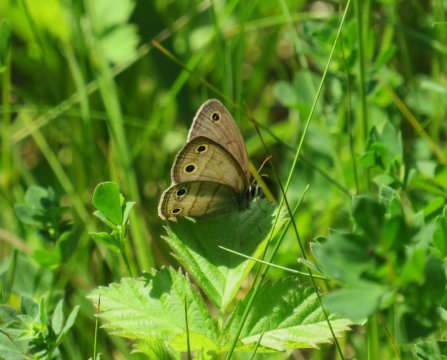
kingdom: Animalia
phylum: Arthropoda
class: Insecta
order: Lepidoptera
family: Nymphalidae
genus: Euptychia
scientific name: Euptychia cymela
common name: Little Wood Satyr
